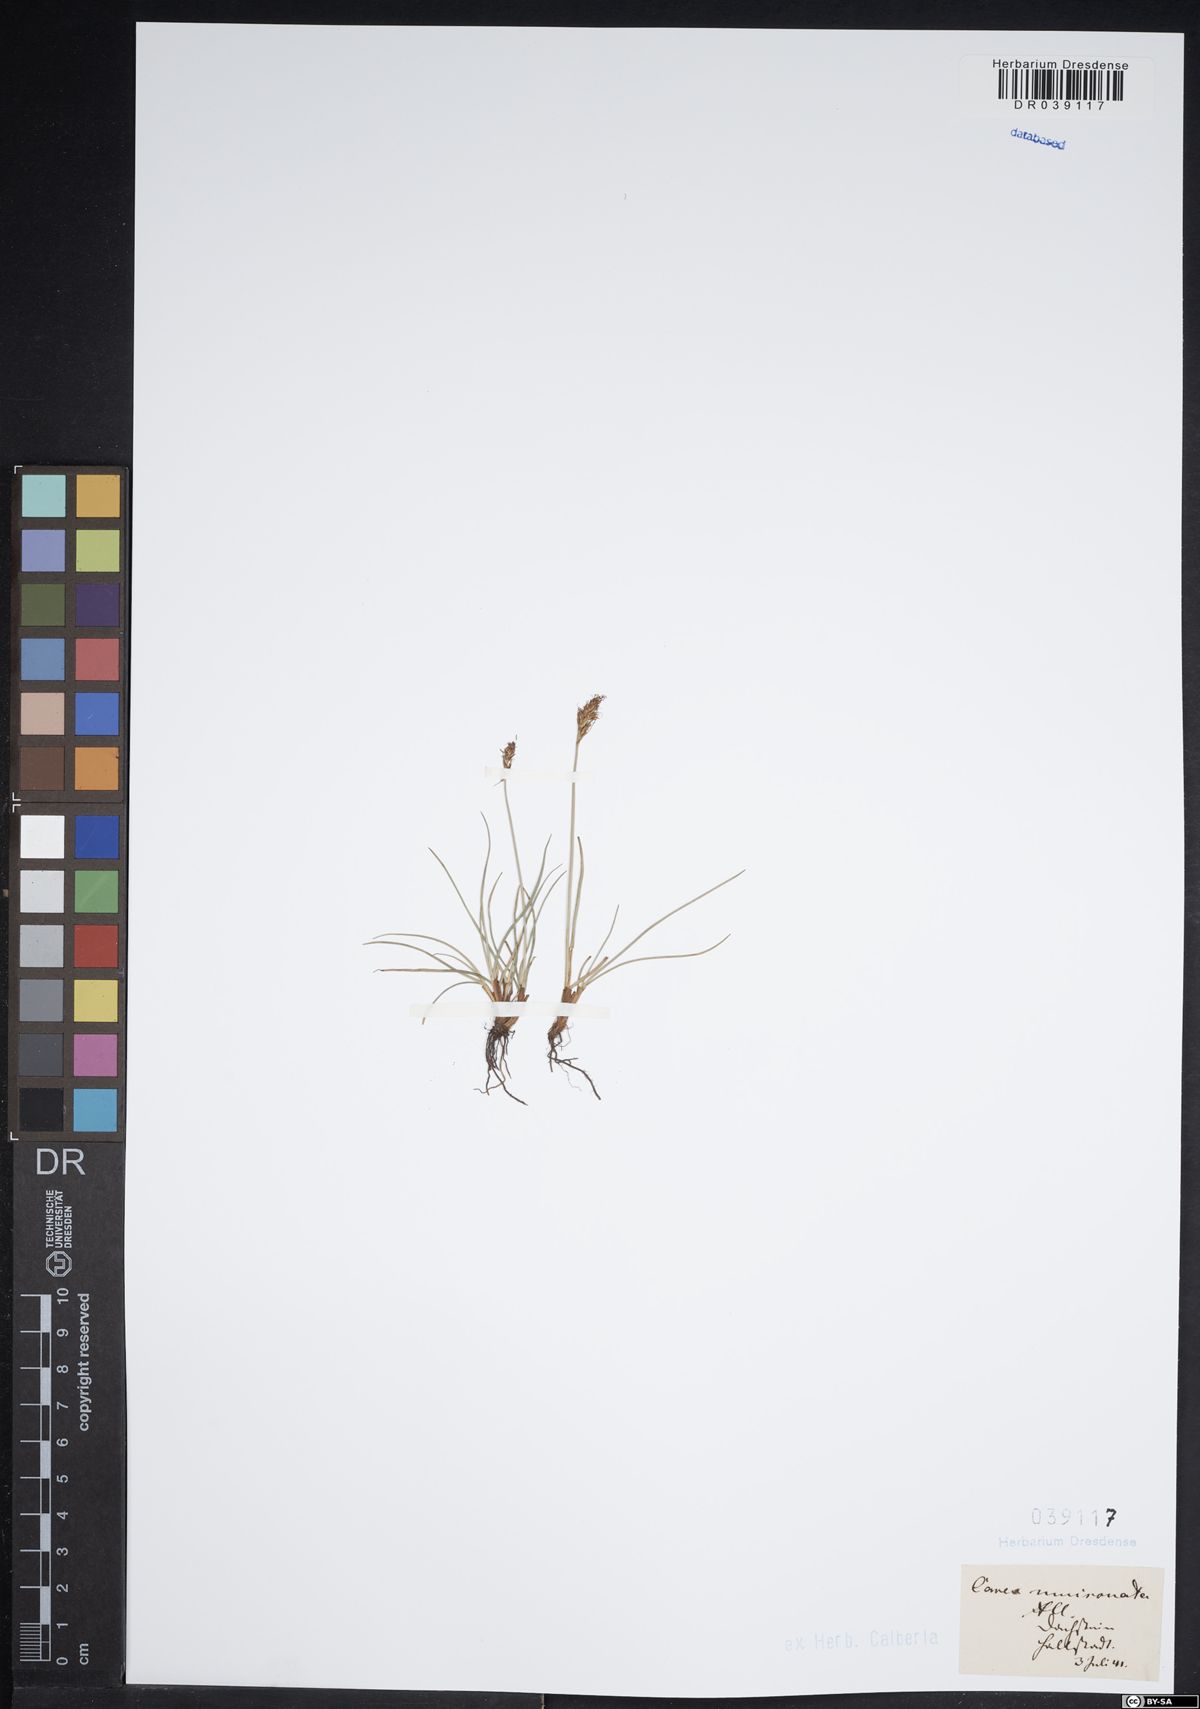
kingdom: Plantae
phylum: Tracheophyta
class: Liliopsida
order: Poales
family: Cyperaceae
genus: Carex
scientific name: Carex mucronata
